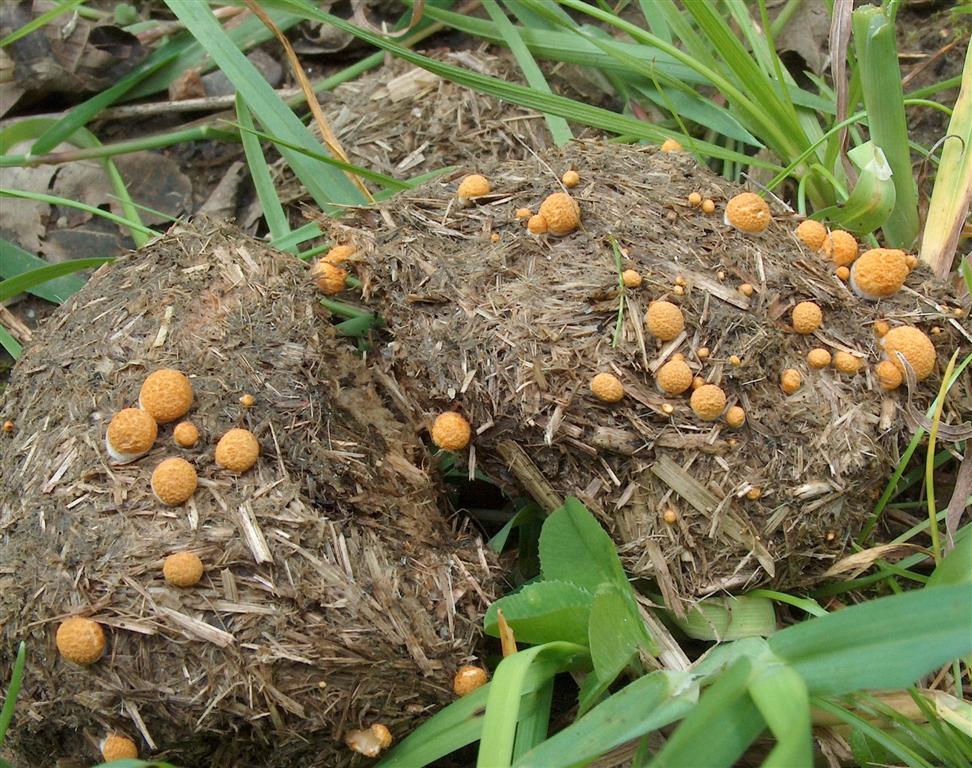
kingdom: Fungi
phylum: Basidiomycota
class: Agaricomycetes
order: Agaricales
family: Nidulariaceae
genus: Crucibulum
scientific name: Crucibulum crucibuliforme
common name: krukkesvamp
